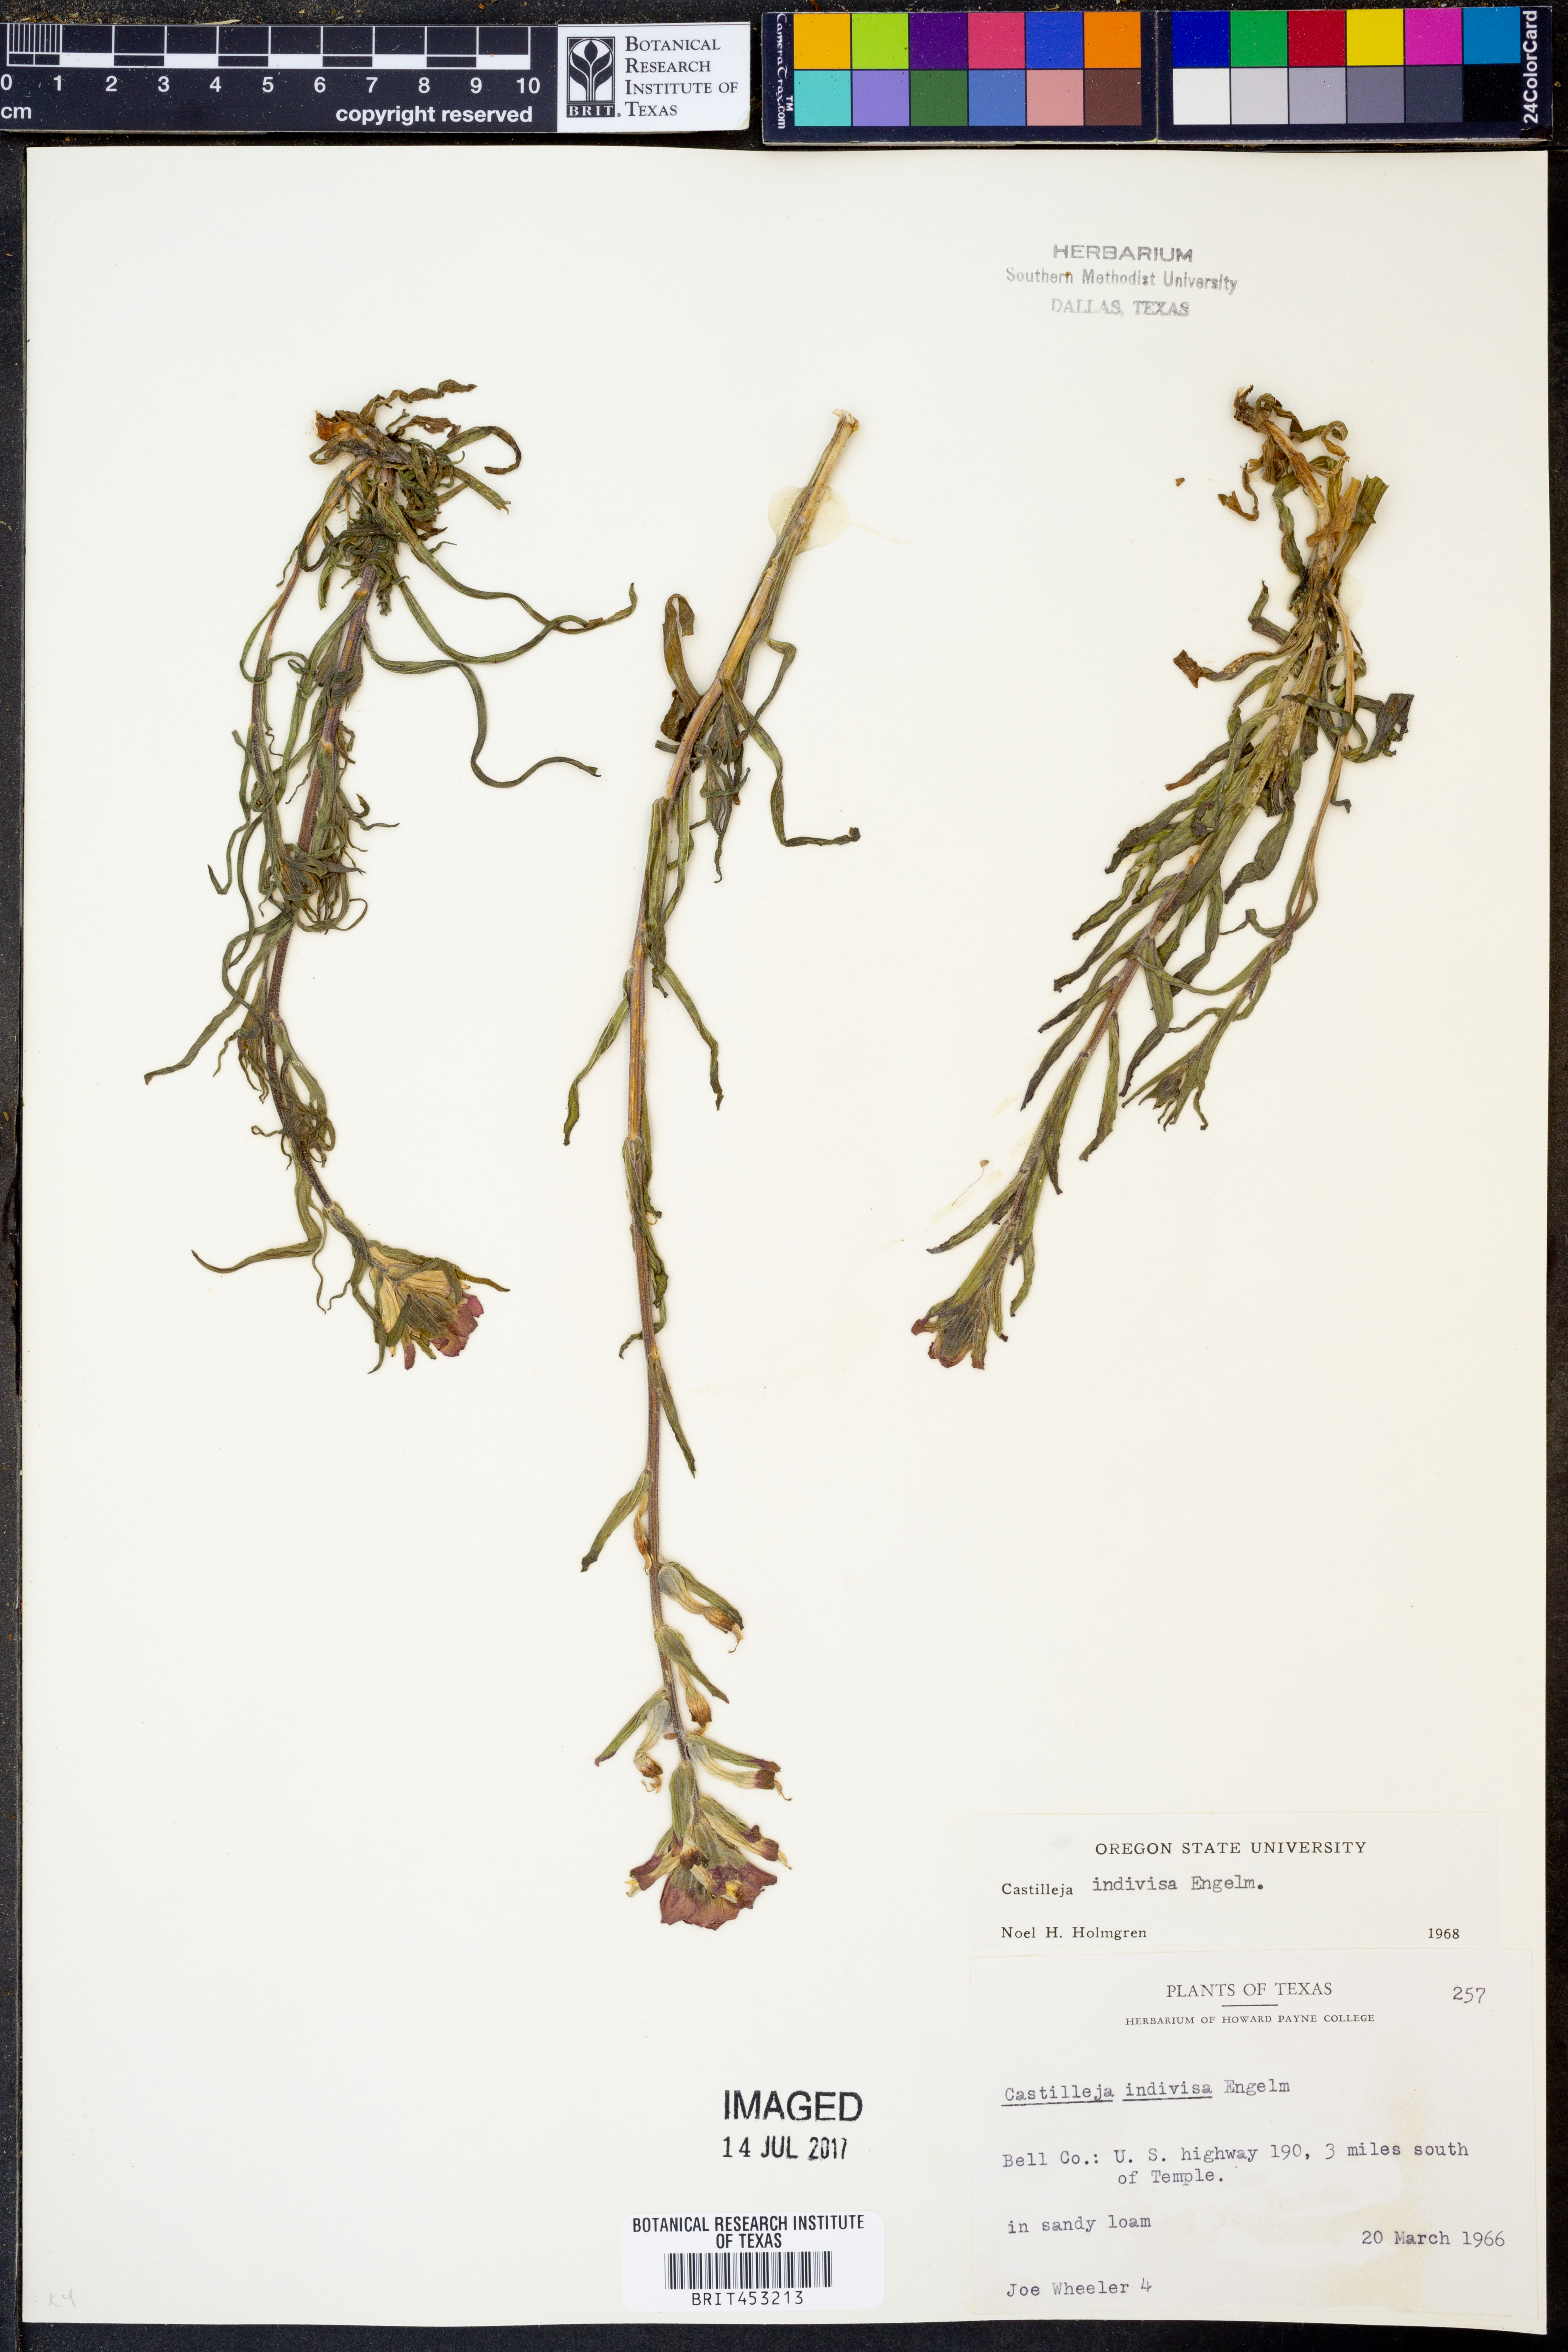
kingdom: Plantae
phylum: Tracheophyta
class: Magnoliopsida
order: Lamiales
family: Orobanchaceae
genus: Castilleja
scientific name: Castilleja indivisa
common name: Texas paintbrush
